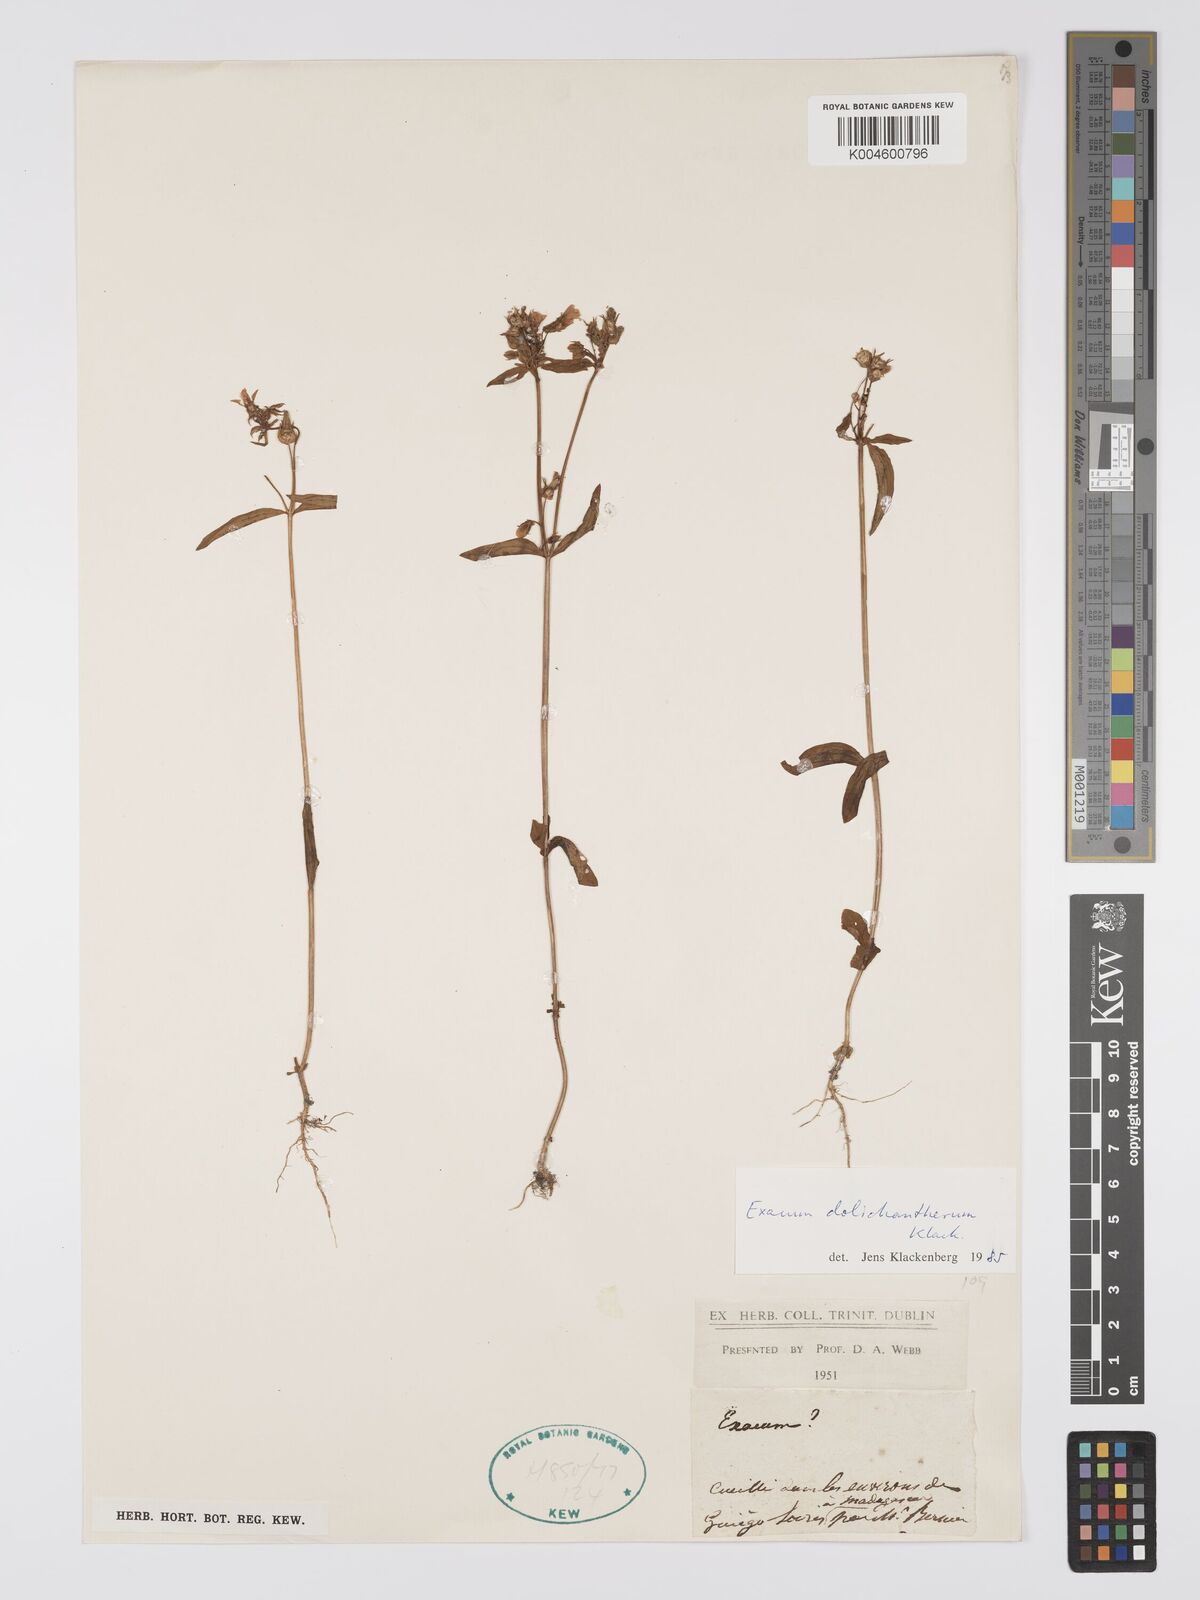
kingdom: Plantae
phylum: Tracheophyta
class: Magnoliopsida
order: Gentianales
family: Gentianaceae
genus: Exacum
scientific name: Exacum dolichantherum
